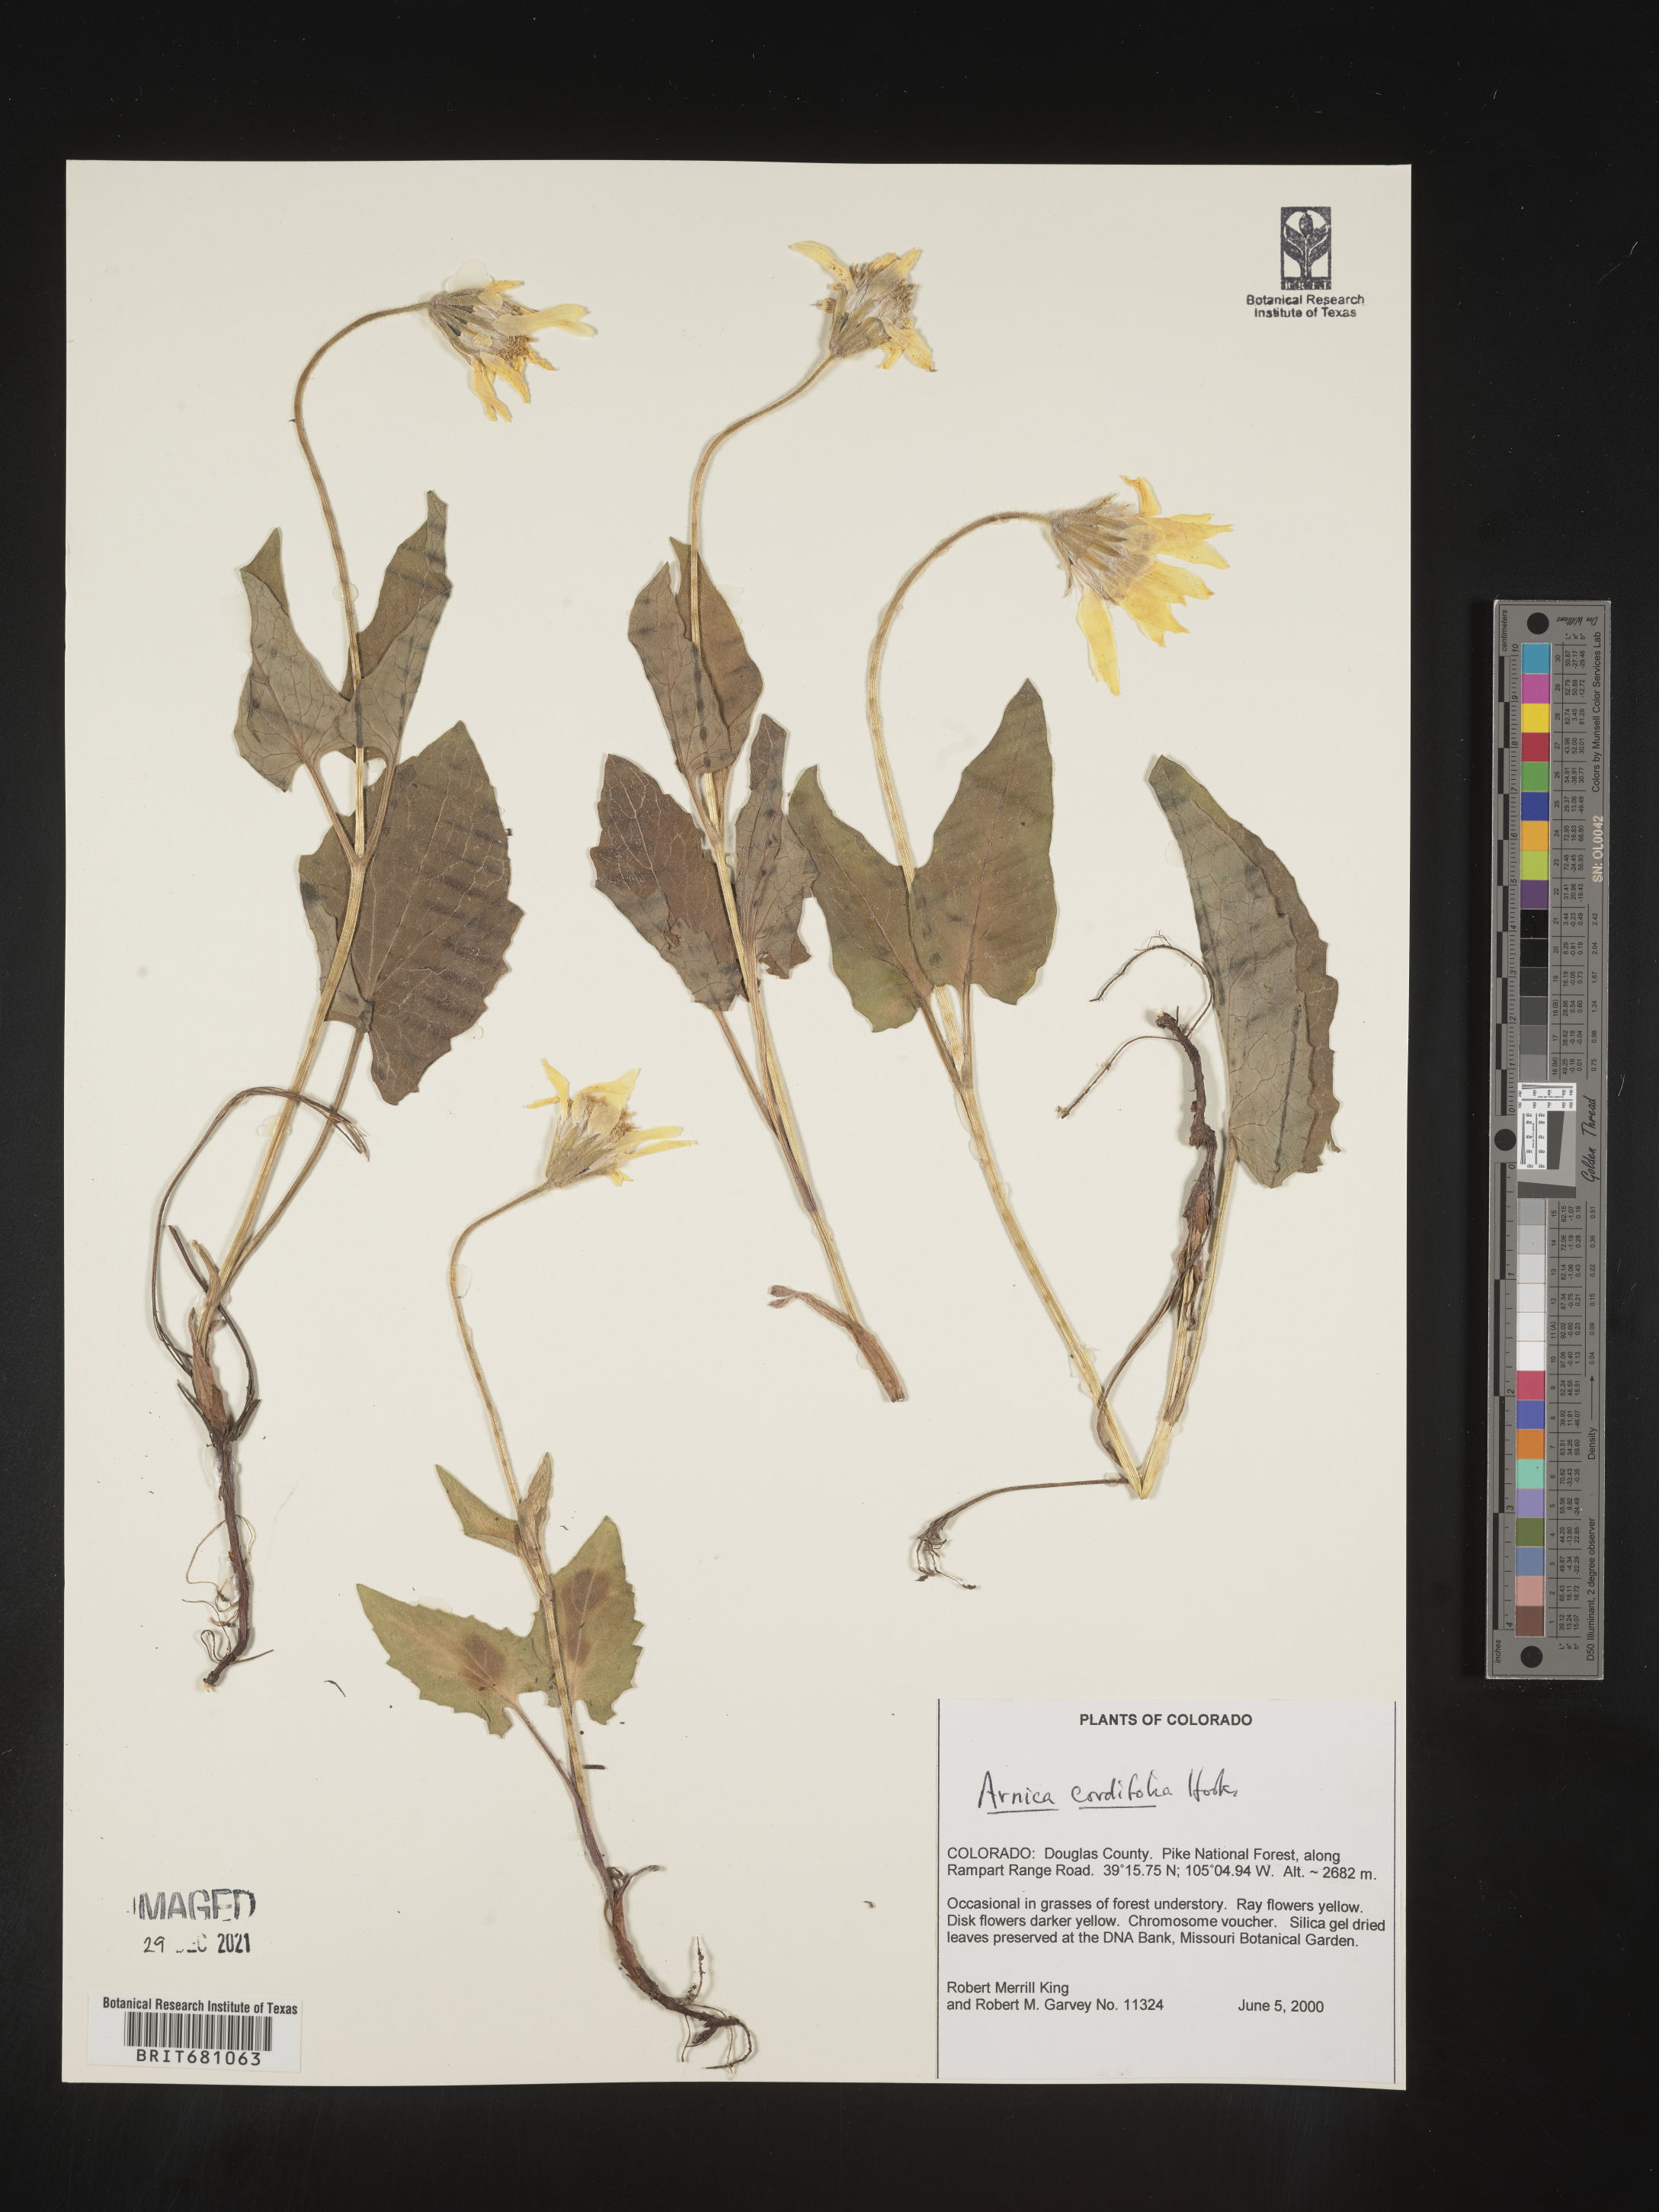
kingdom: Plantae
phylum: Tracheophyta
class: Magnoliopsida
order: Asterales
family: Asteraceae
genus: Arnica
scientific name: Arnica cordifolia
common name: Heart-leaf arnica
